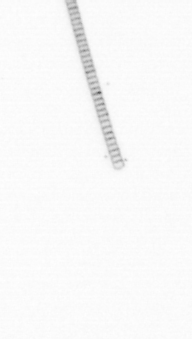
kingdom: Chromista
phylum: Ochrophyta
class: Bacillariophyceae
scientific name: Bacillariophyceae
